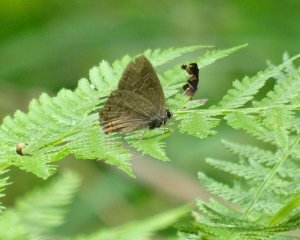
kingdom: Animalia
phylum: Arthropoda
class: Insecta
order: Lepidoptera
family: Lycaenidae
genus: Satyrium
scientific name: Satyrium liparops
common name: Striped Hairstreak
